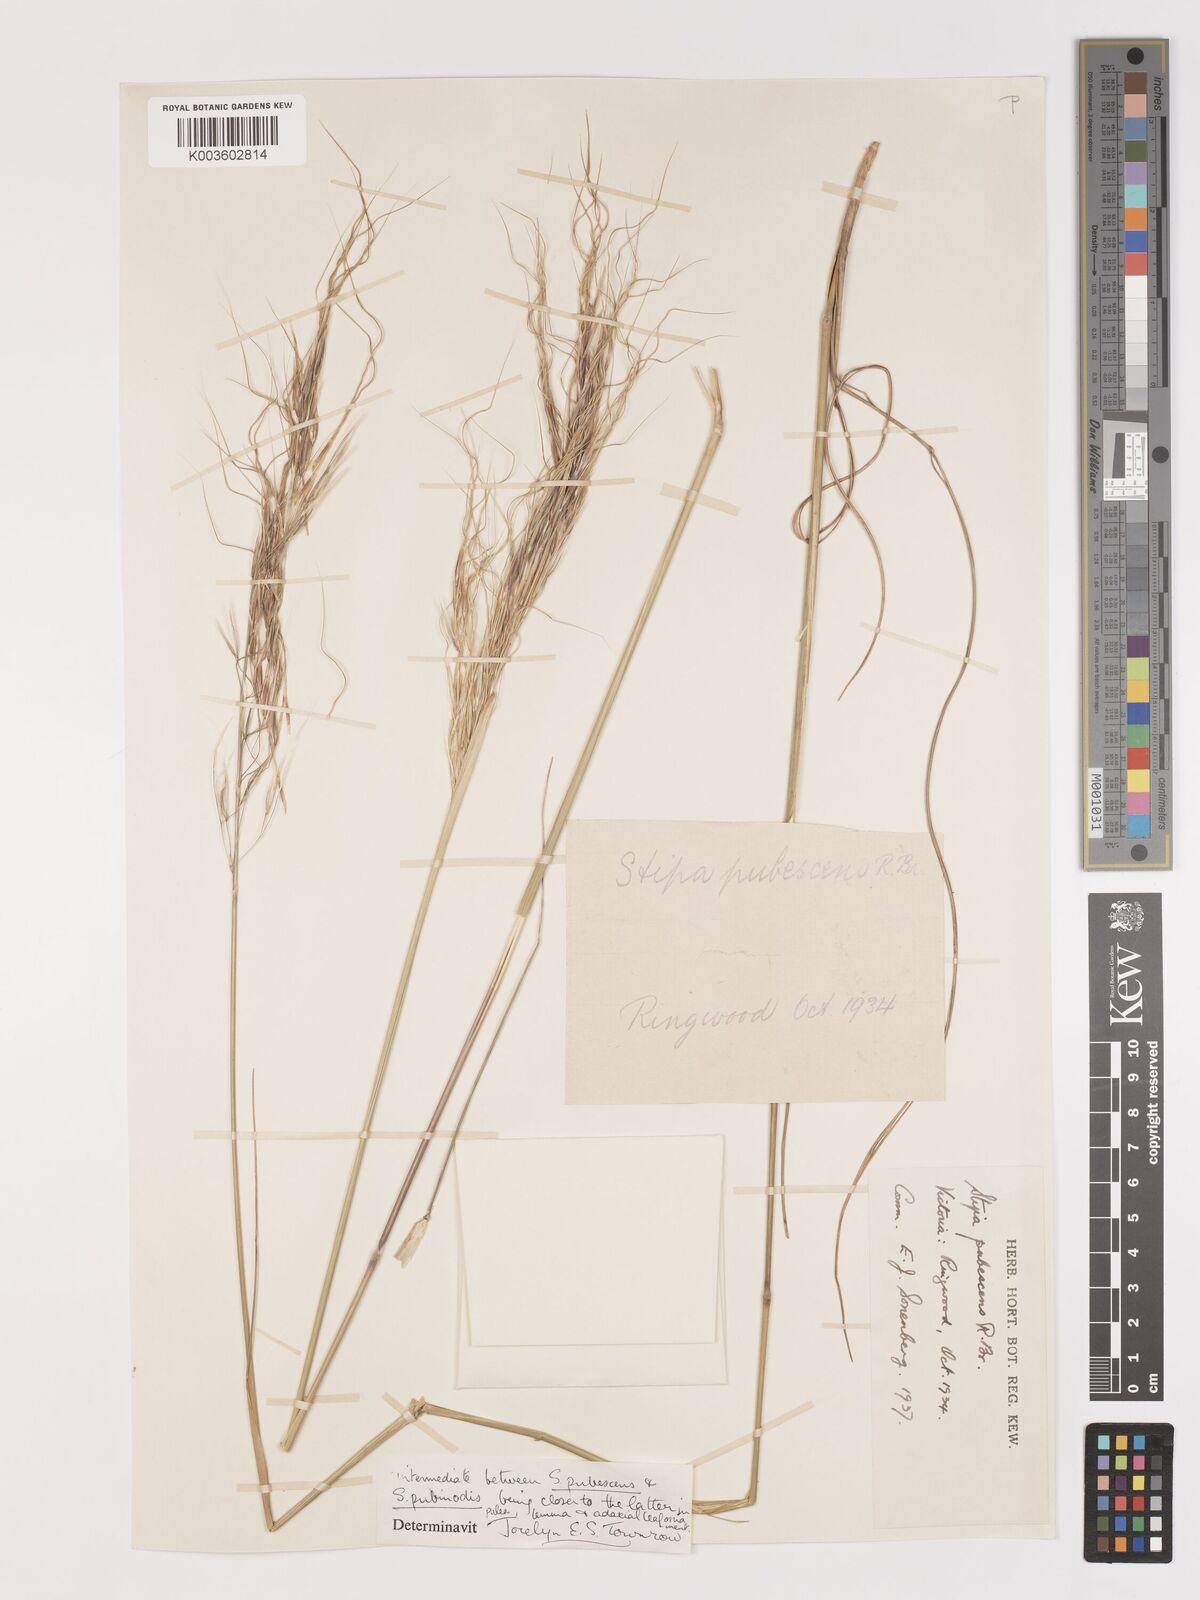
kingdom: Plantae
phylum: Tracheophyta
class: Liliopsida
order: Poales
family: Poaceae
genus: Austrostipa
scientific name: Austrostipa pubescens
